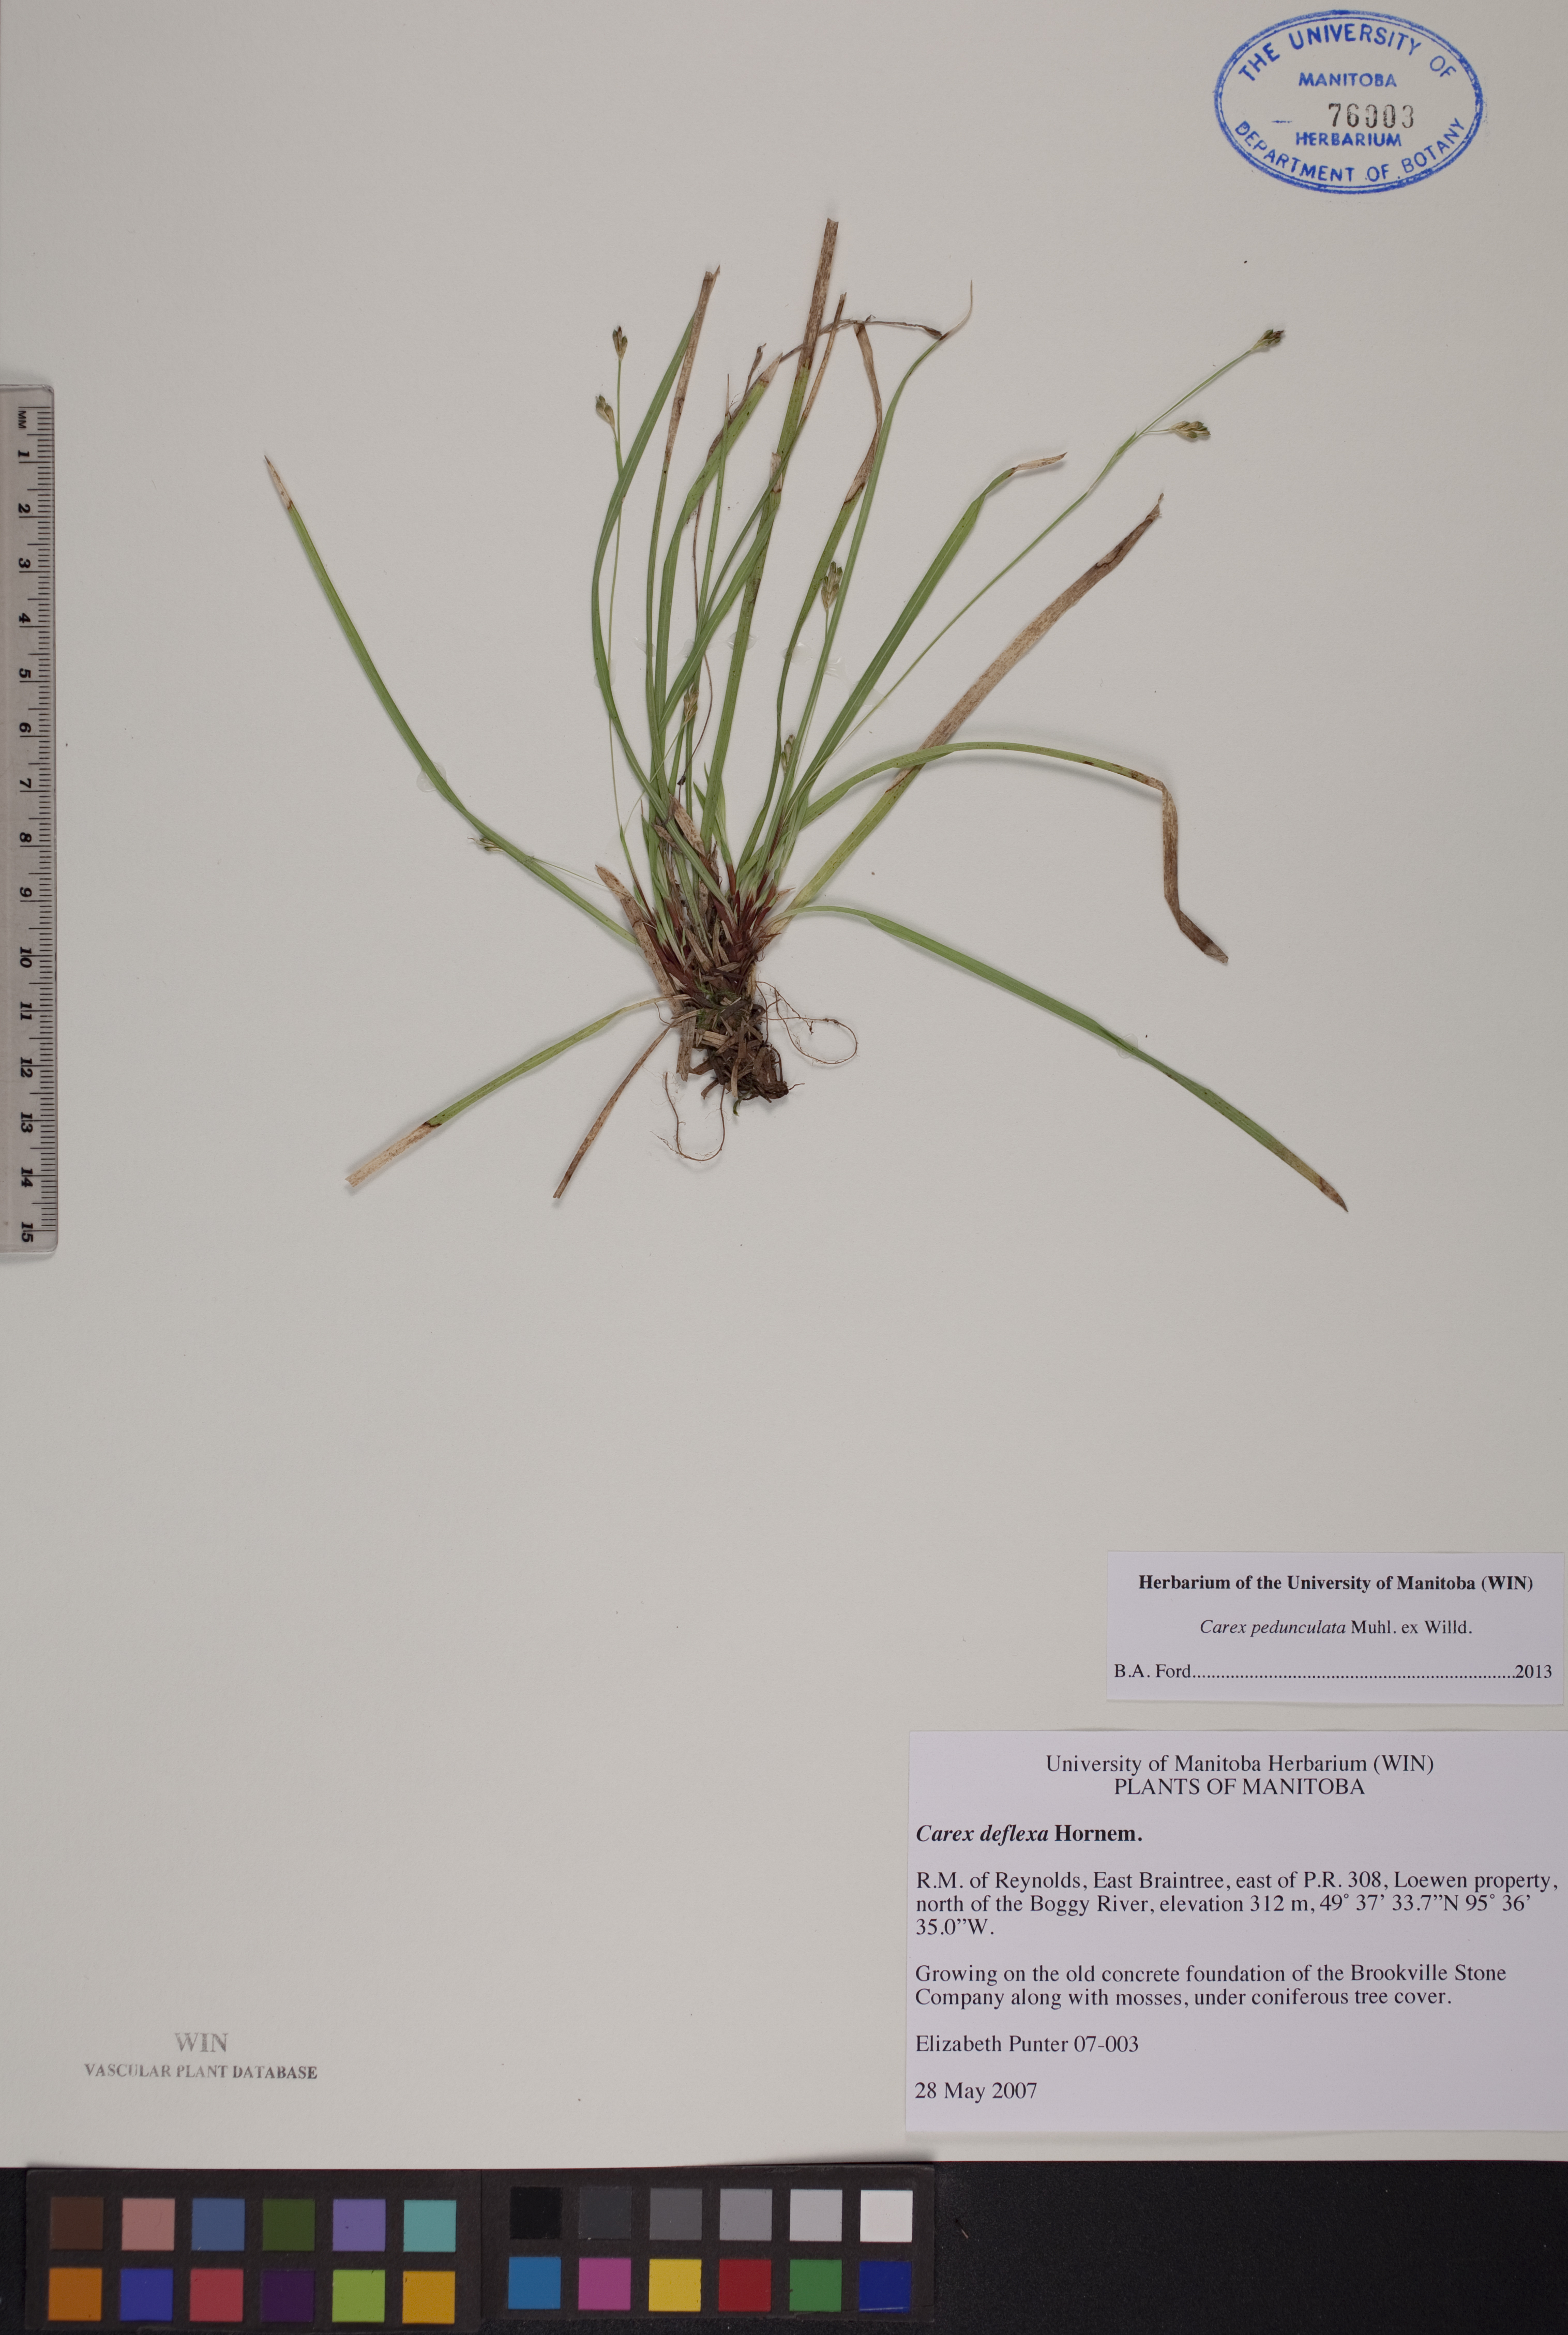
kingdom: Plantae
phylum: Tracheophyta
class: Liliopsida
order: Poales
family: Cyperaceae
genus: Carex
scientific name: Carex pedunculata
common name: Pedunculate sedge
